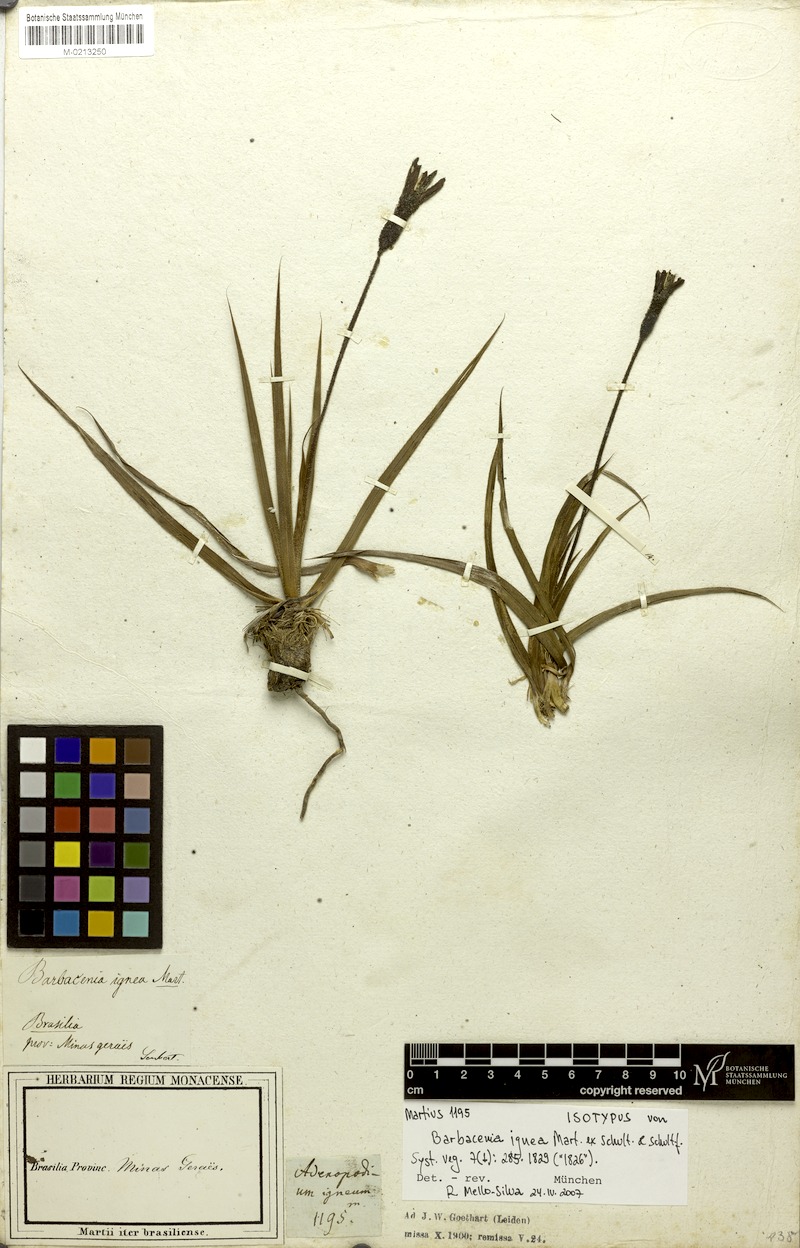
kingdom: Plantae
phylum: Tracheophyta
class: Liliopsida
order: Pandanales
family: Velloziaceae
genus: Barbacenia
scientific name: Barbacenia ignea
